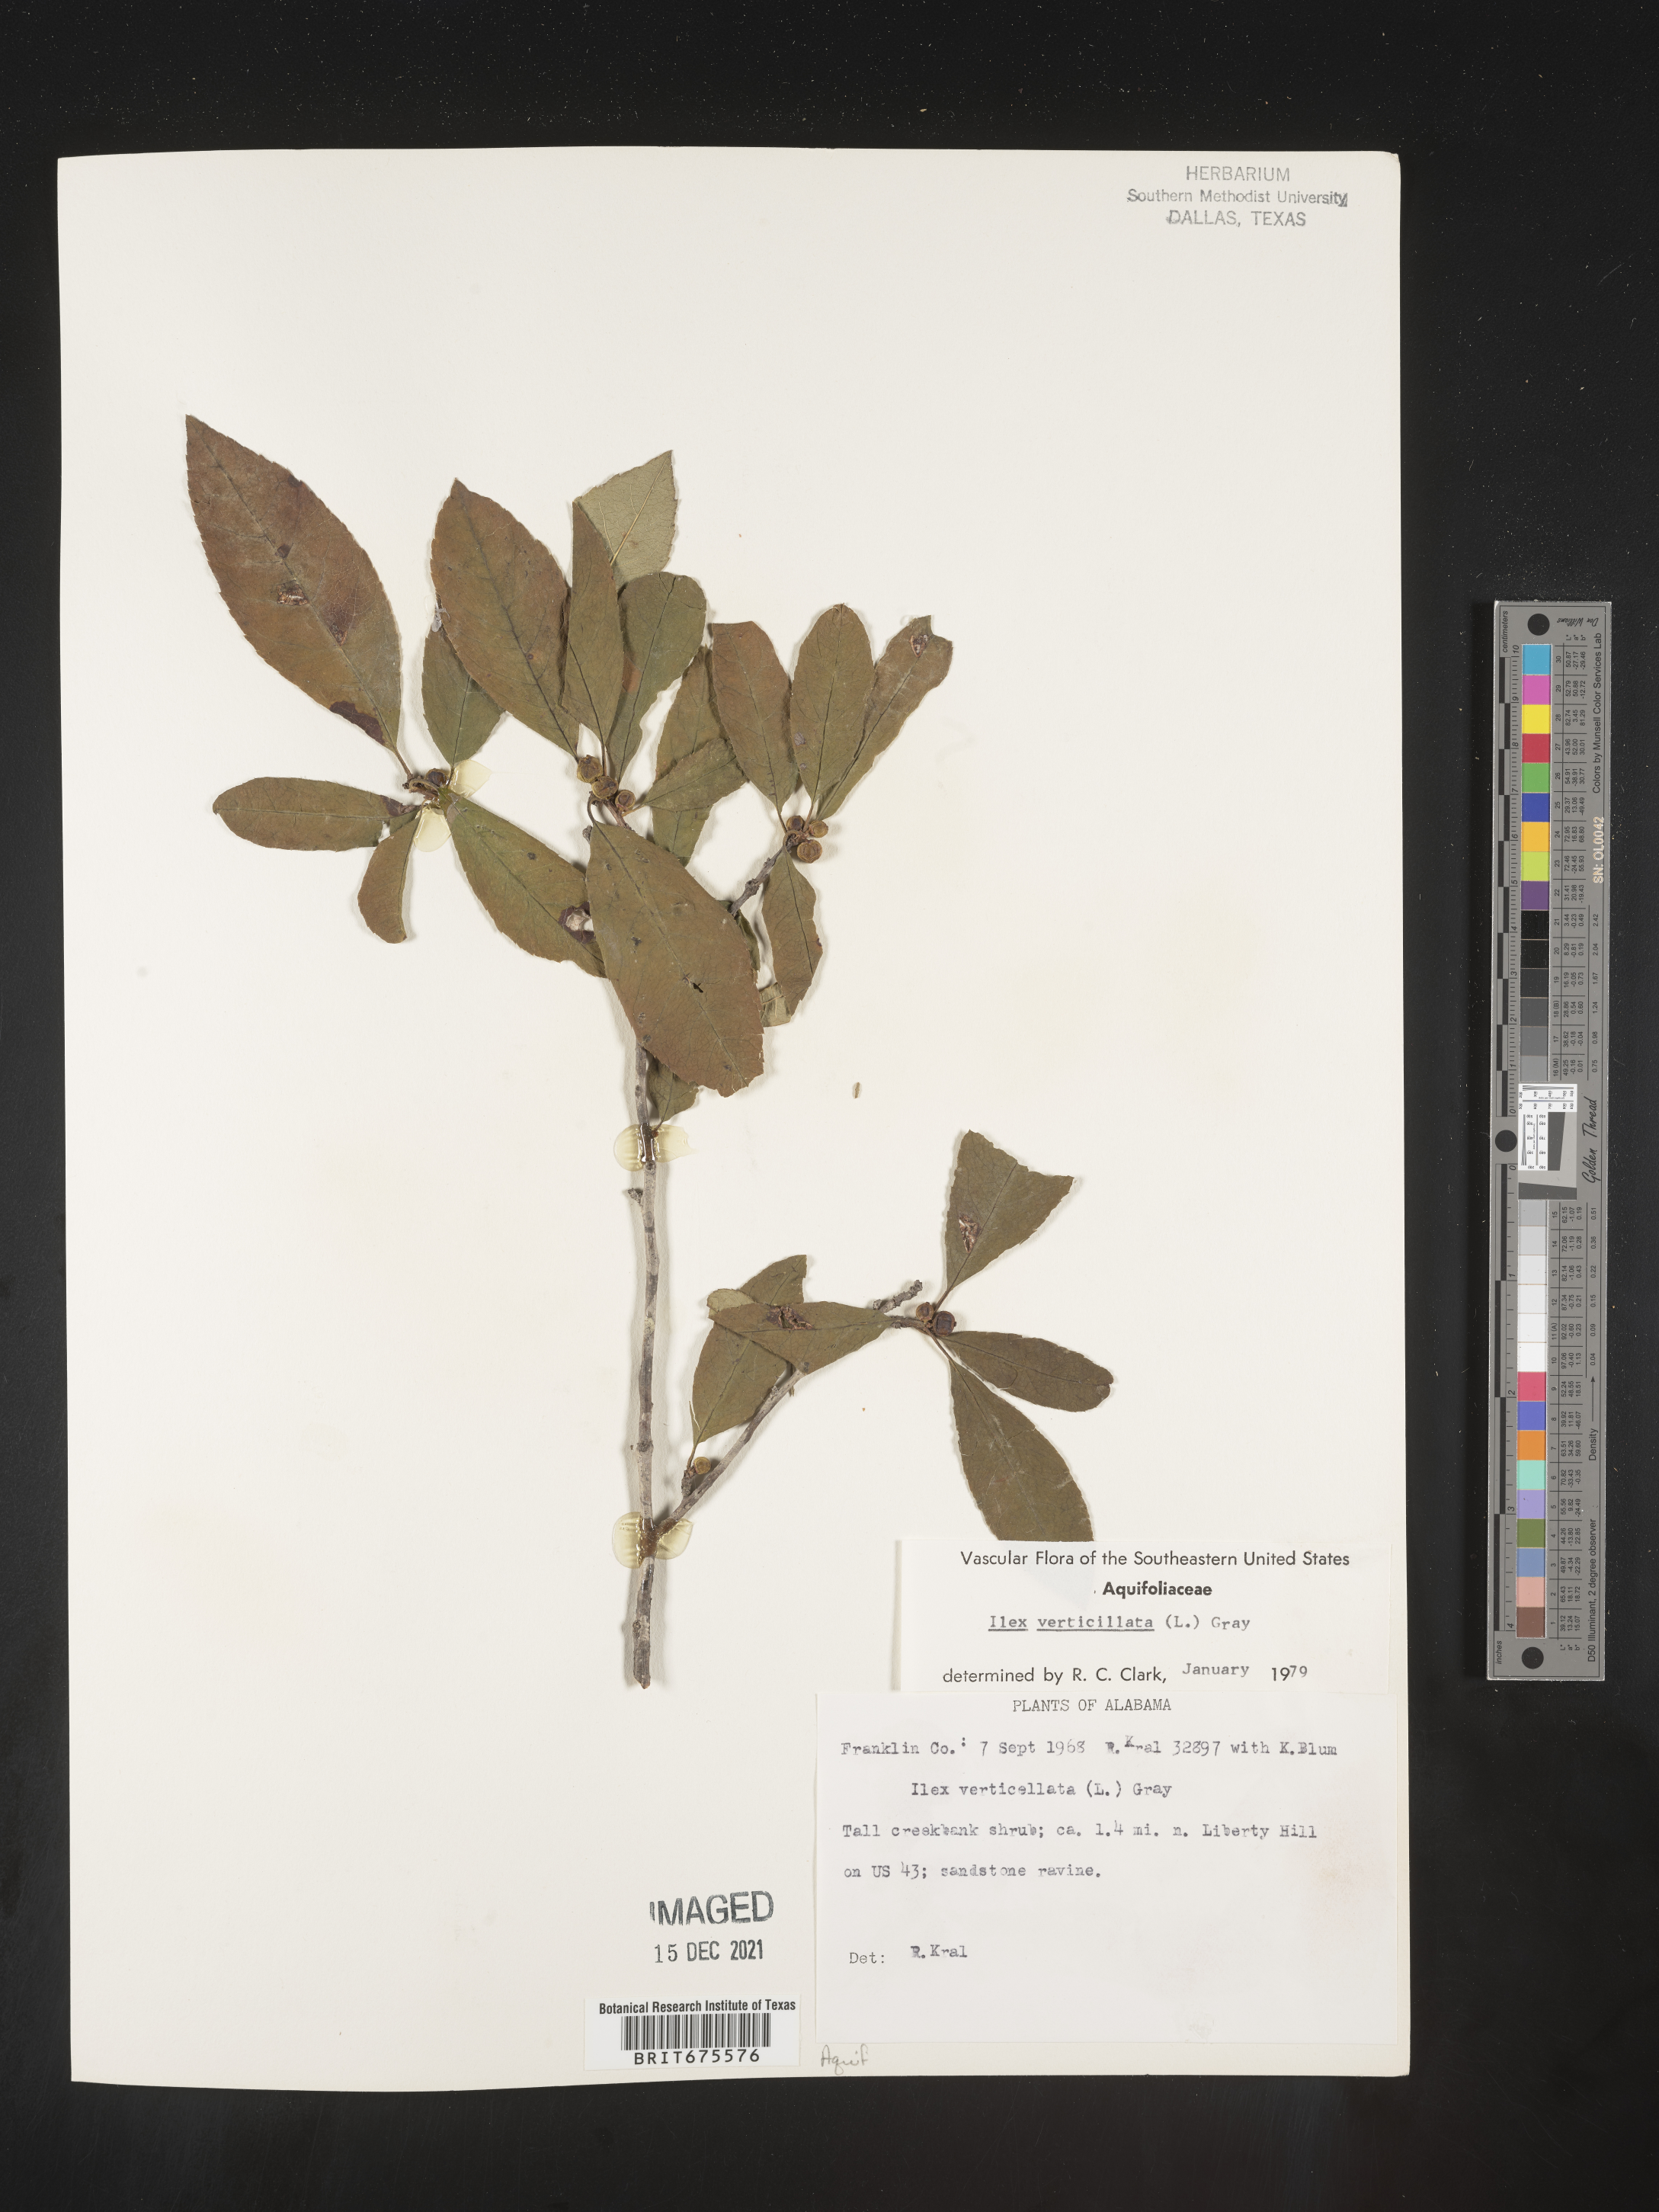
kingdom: Plantae
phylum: Tracheophyta
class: Magnoliopsida
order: Aquifoliales
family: Aquifoliaceae
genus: Ilex
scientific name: Ilex verticillata
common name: Virginia winterberry
